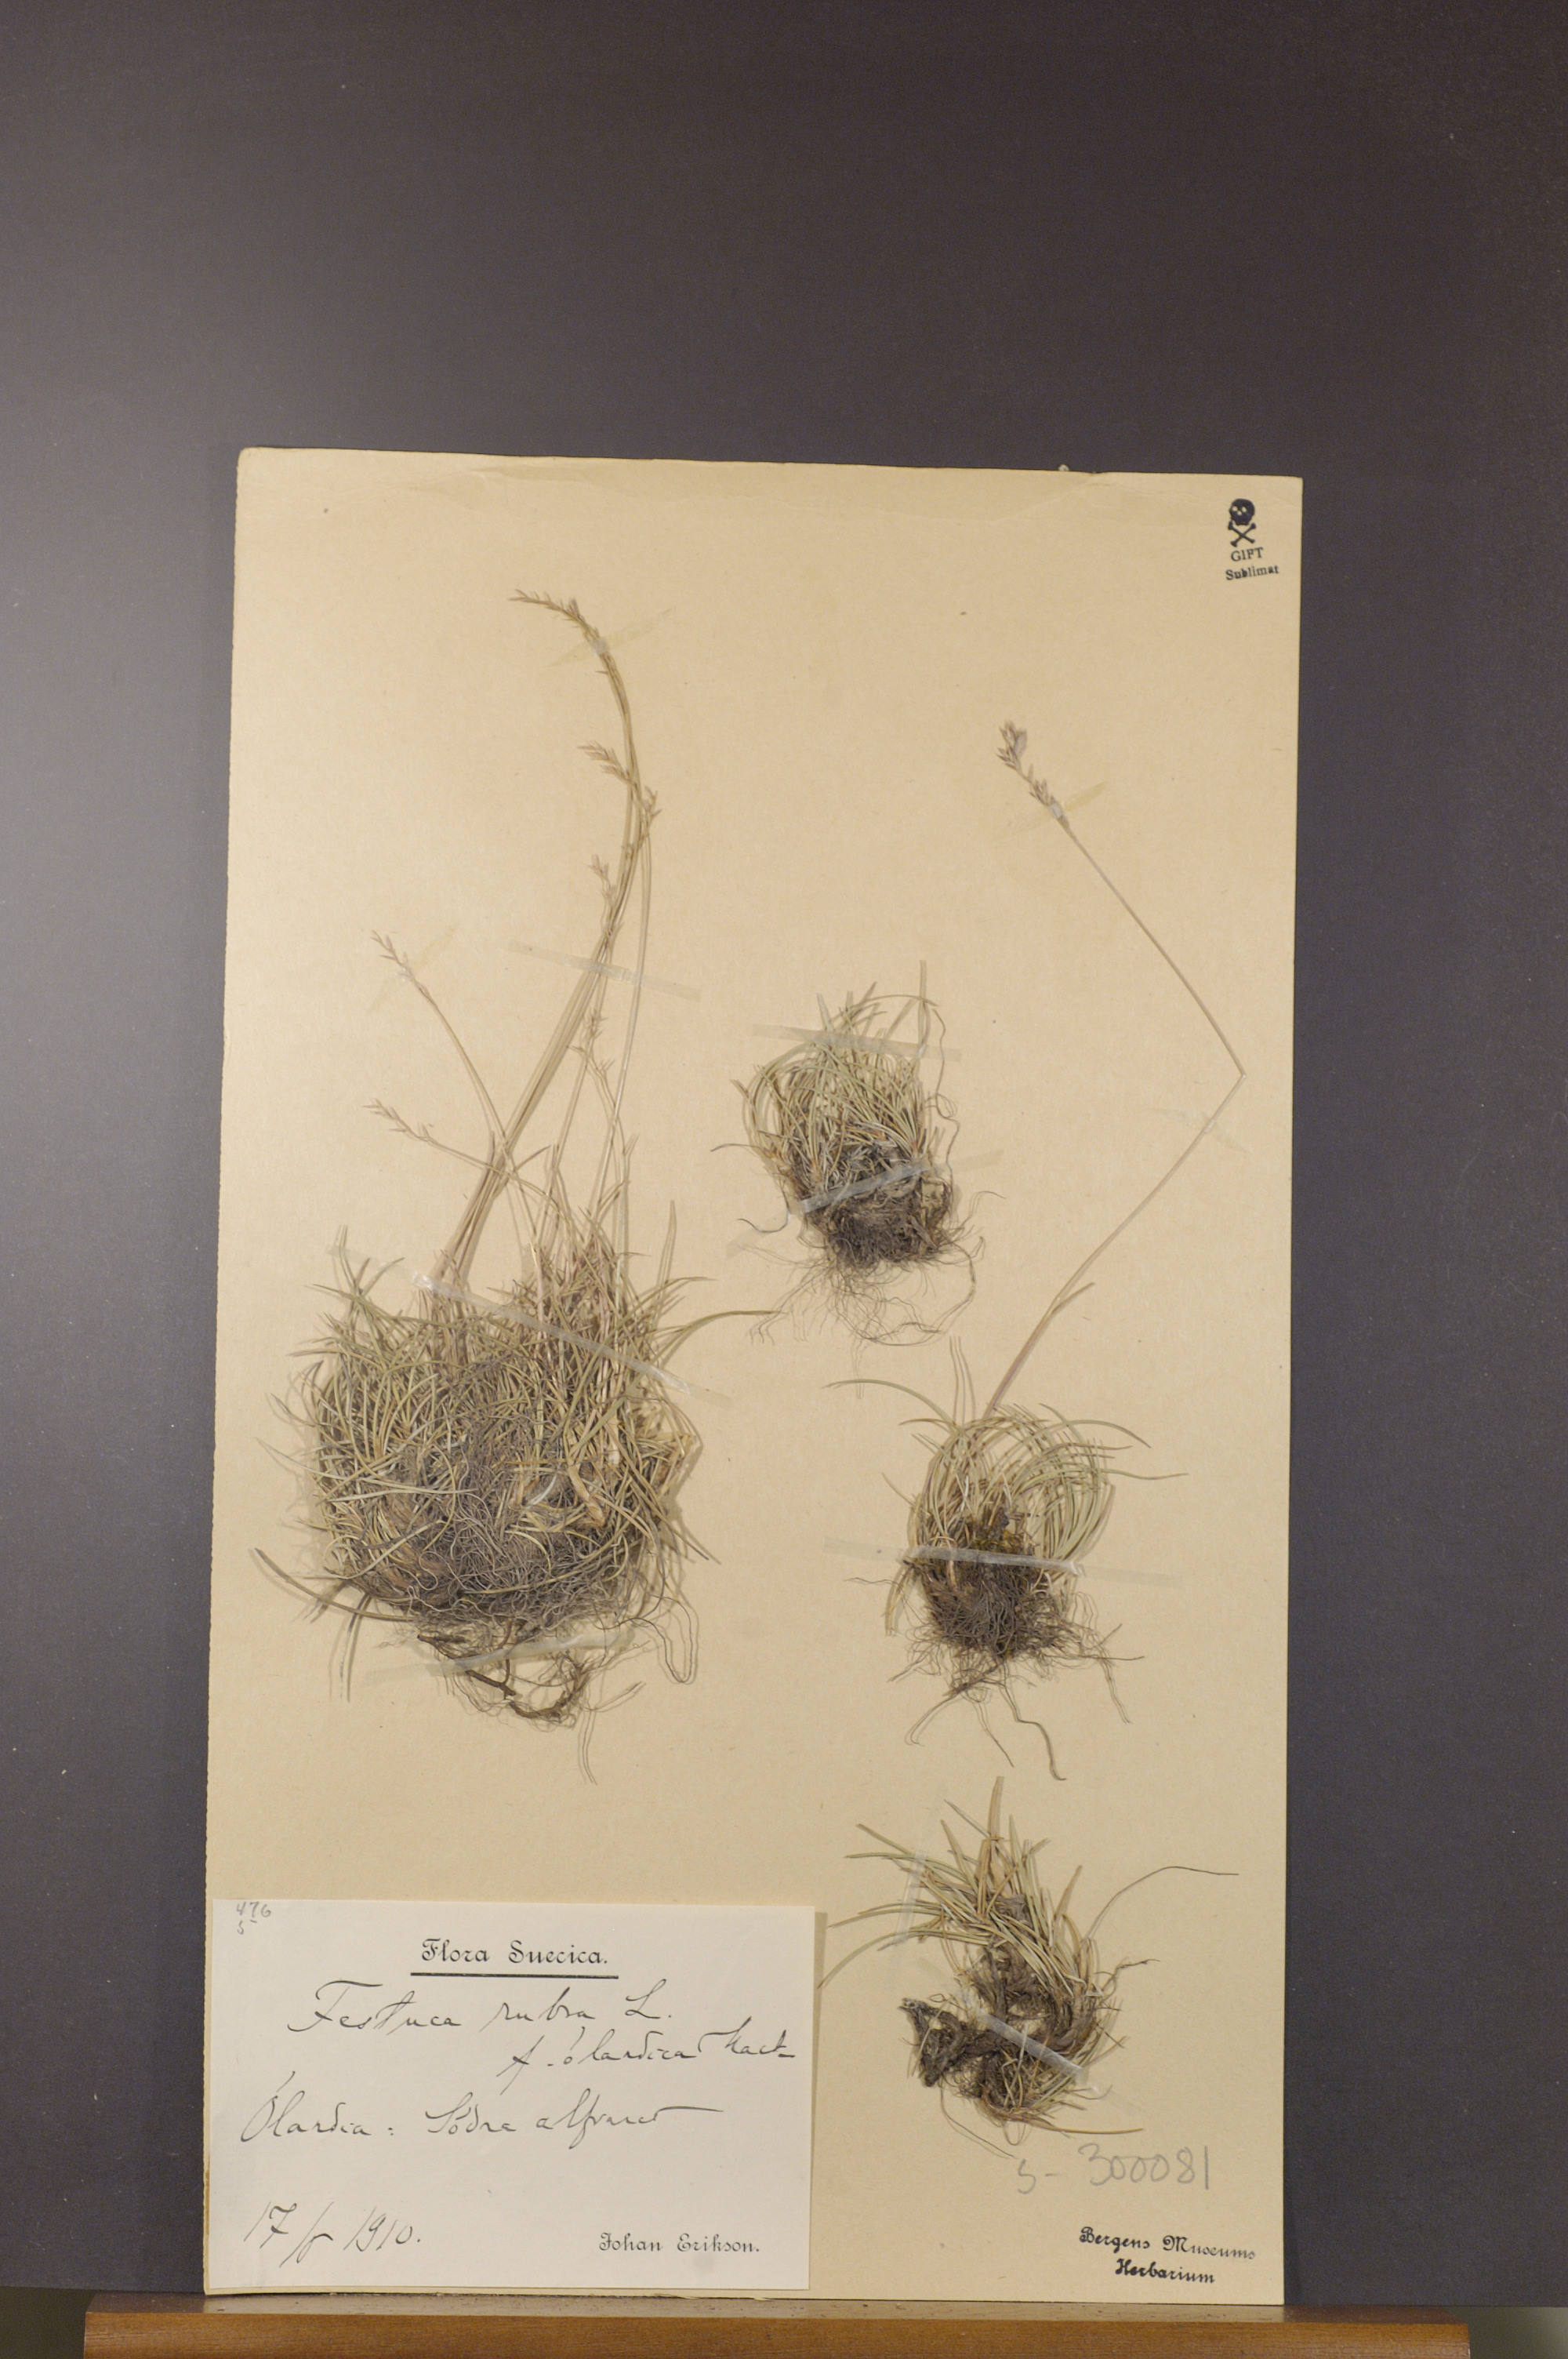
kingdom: Plantae
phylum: Tracheophyta
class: Liliopsida
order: Poales
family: Poaceae
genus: Festuca
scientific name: Festuca rubra
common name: Red fescue
